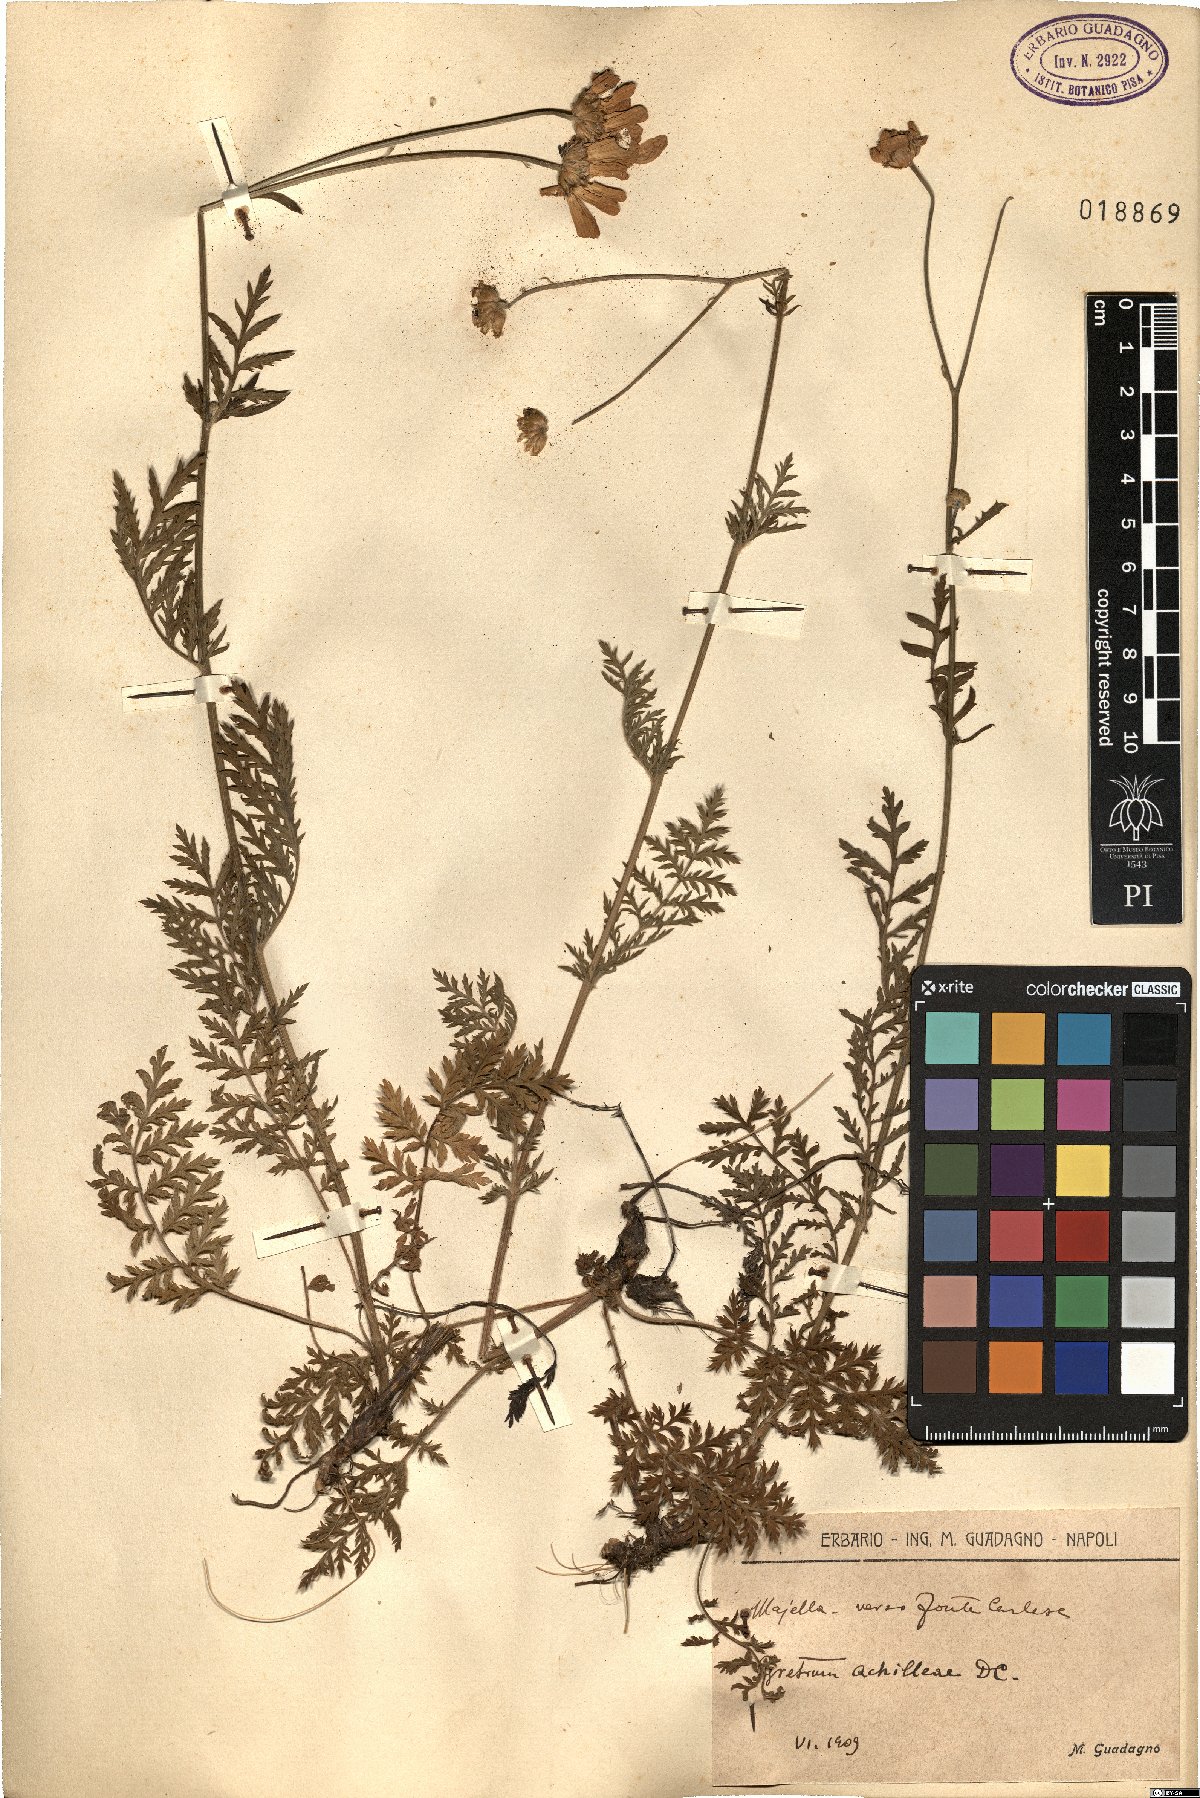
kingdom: Plantae
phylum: Tracheophyta
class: Magnoliopsida
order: Asterales
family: Asteraceae
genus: Tanacetum
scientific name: Tanacetum corymbosum
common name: Scentless feverfew
